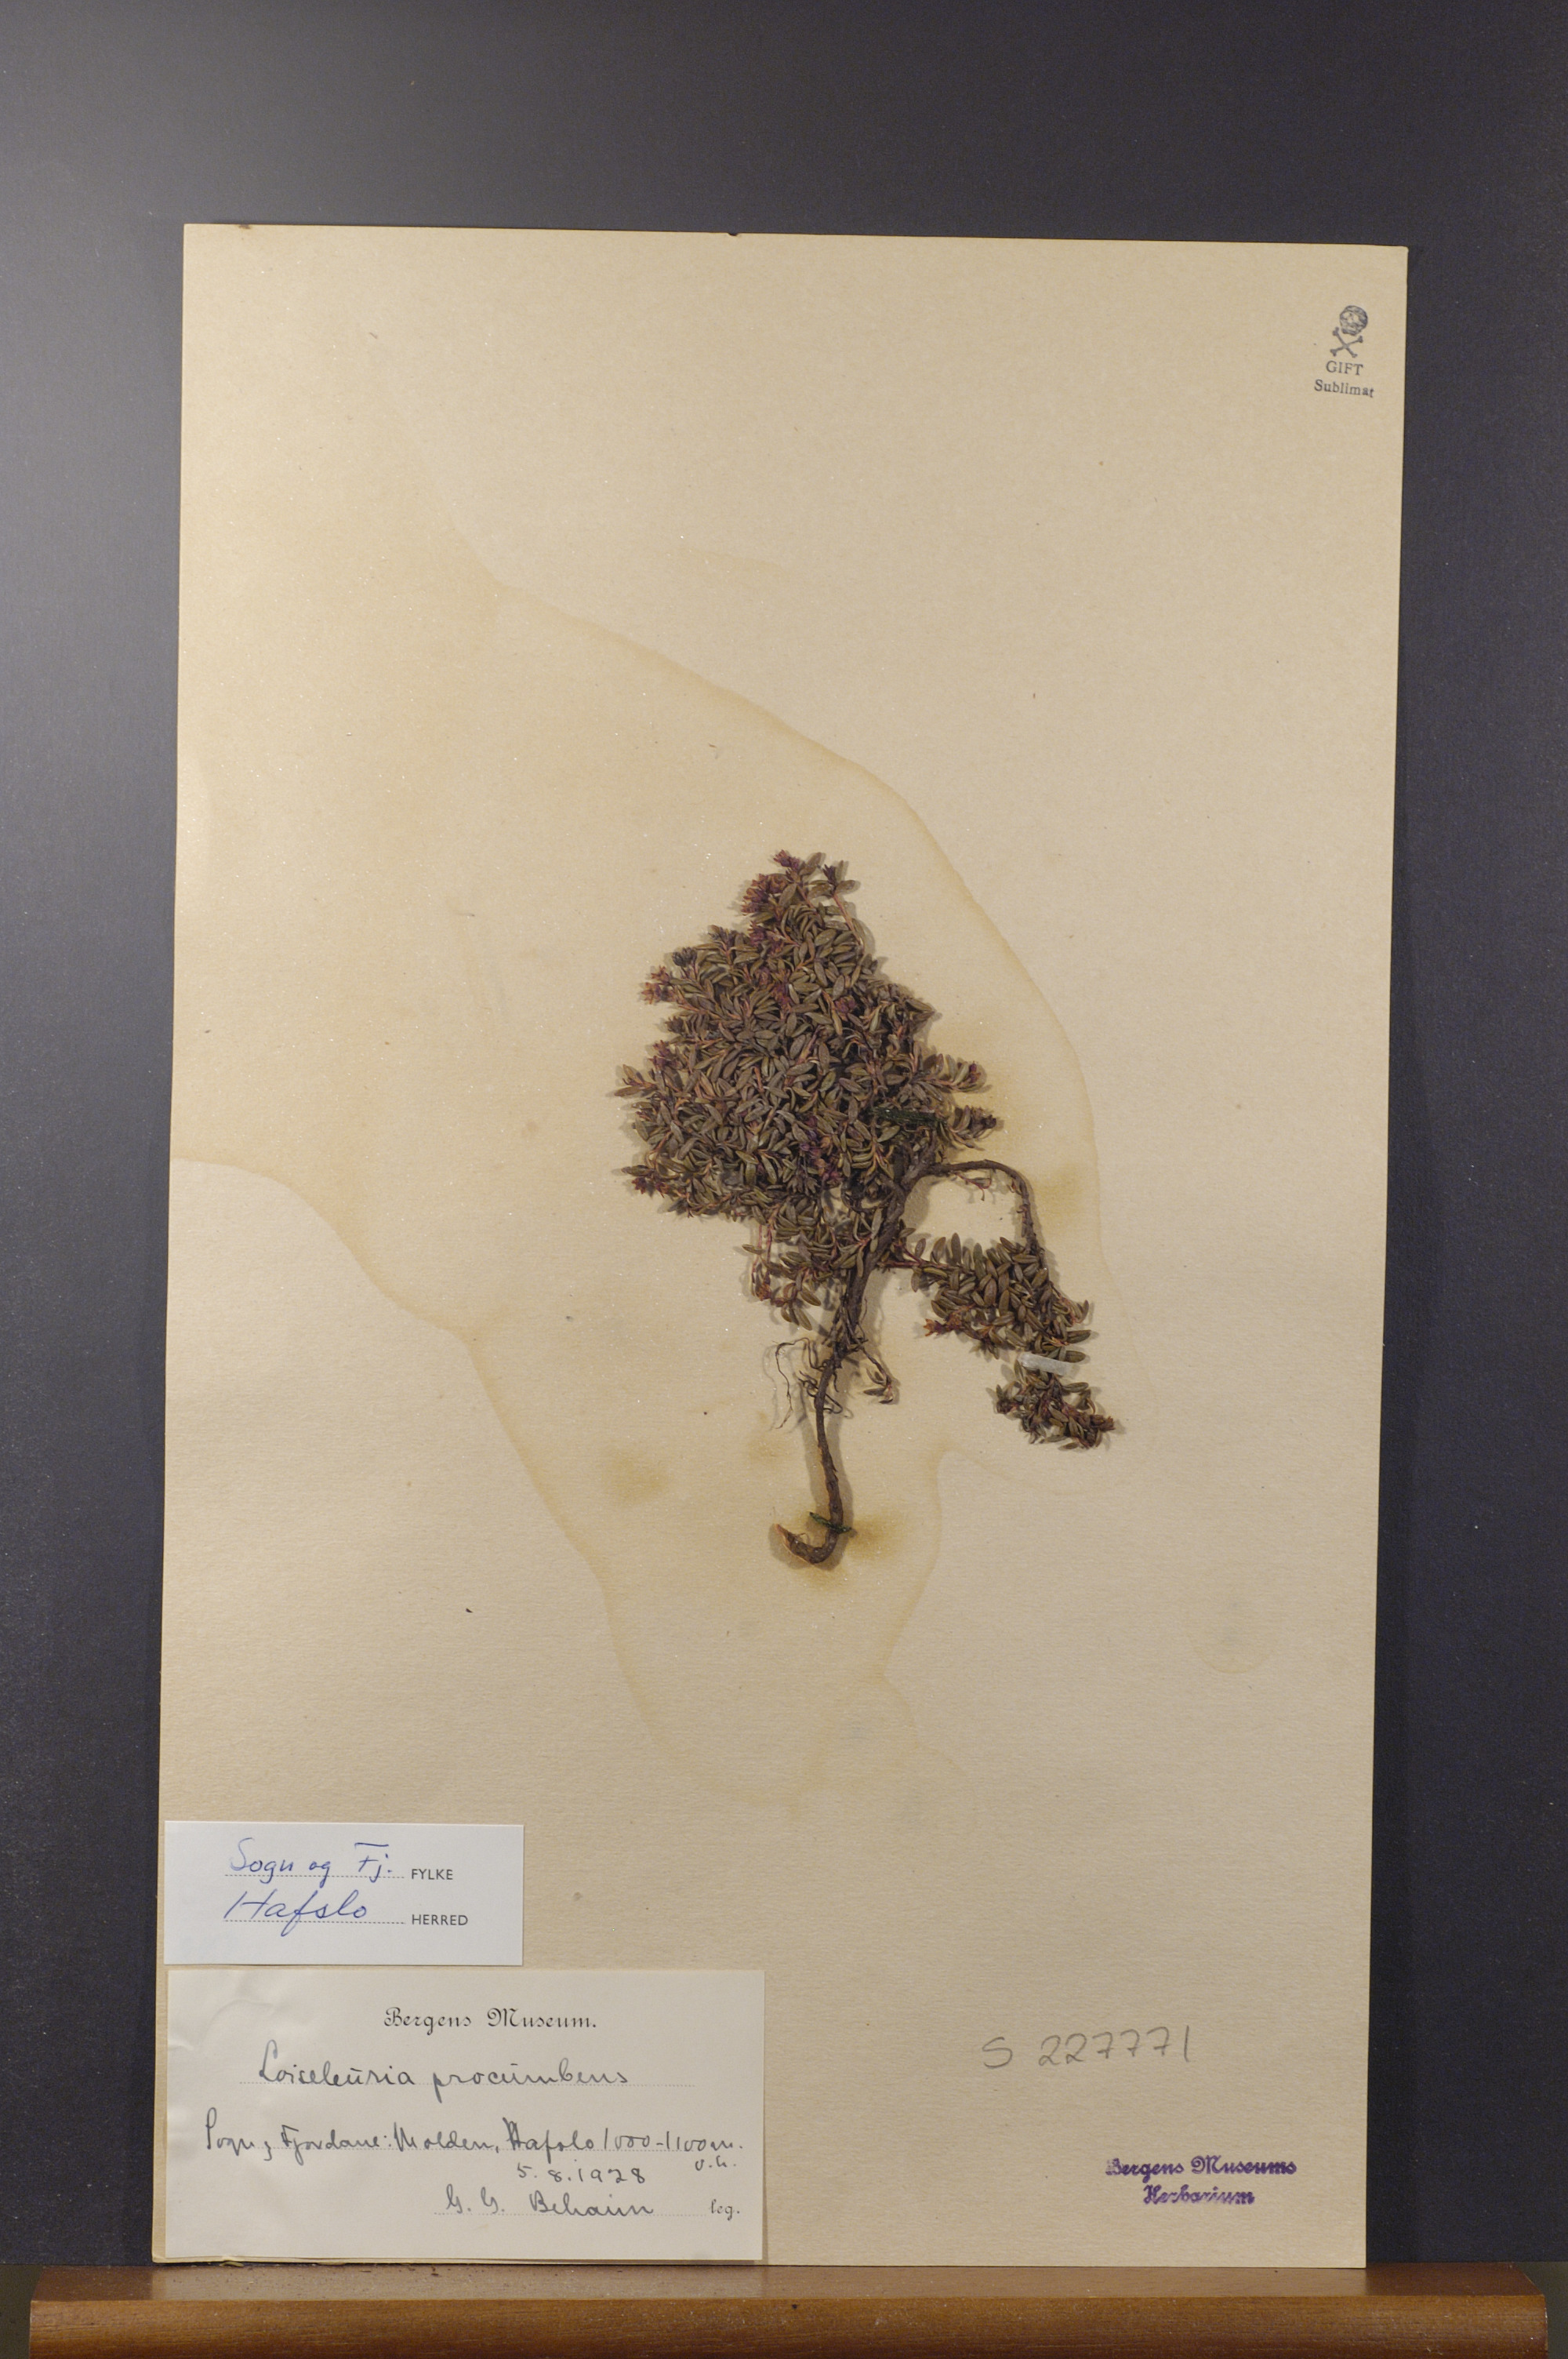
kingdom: Plantae
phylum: Tracheophyta
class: Magnoliopsida
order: Ericales
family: Ericaceae
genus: Kalmia
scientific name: Kalmia procumbens
